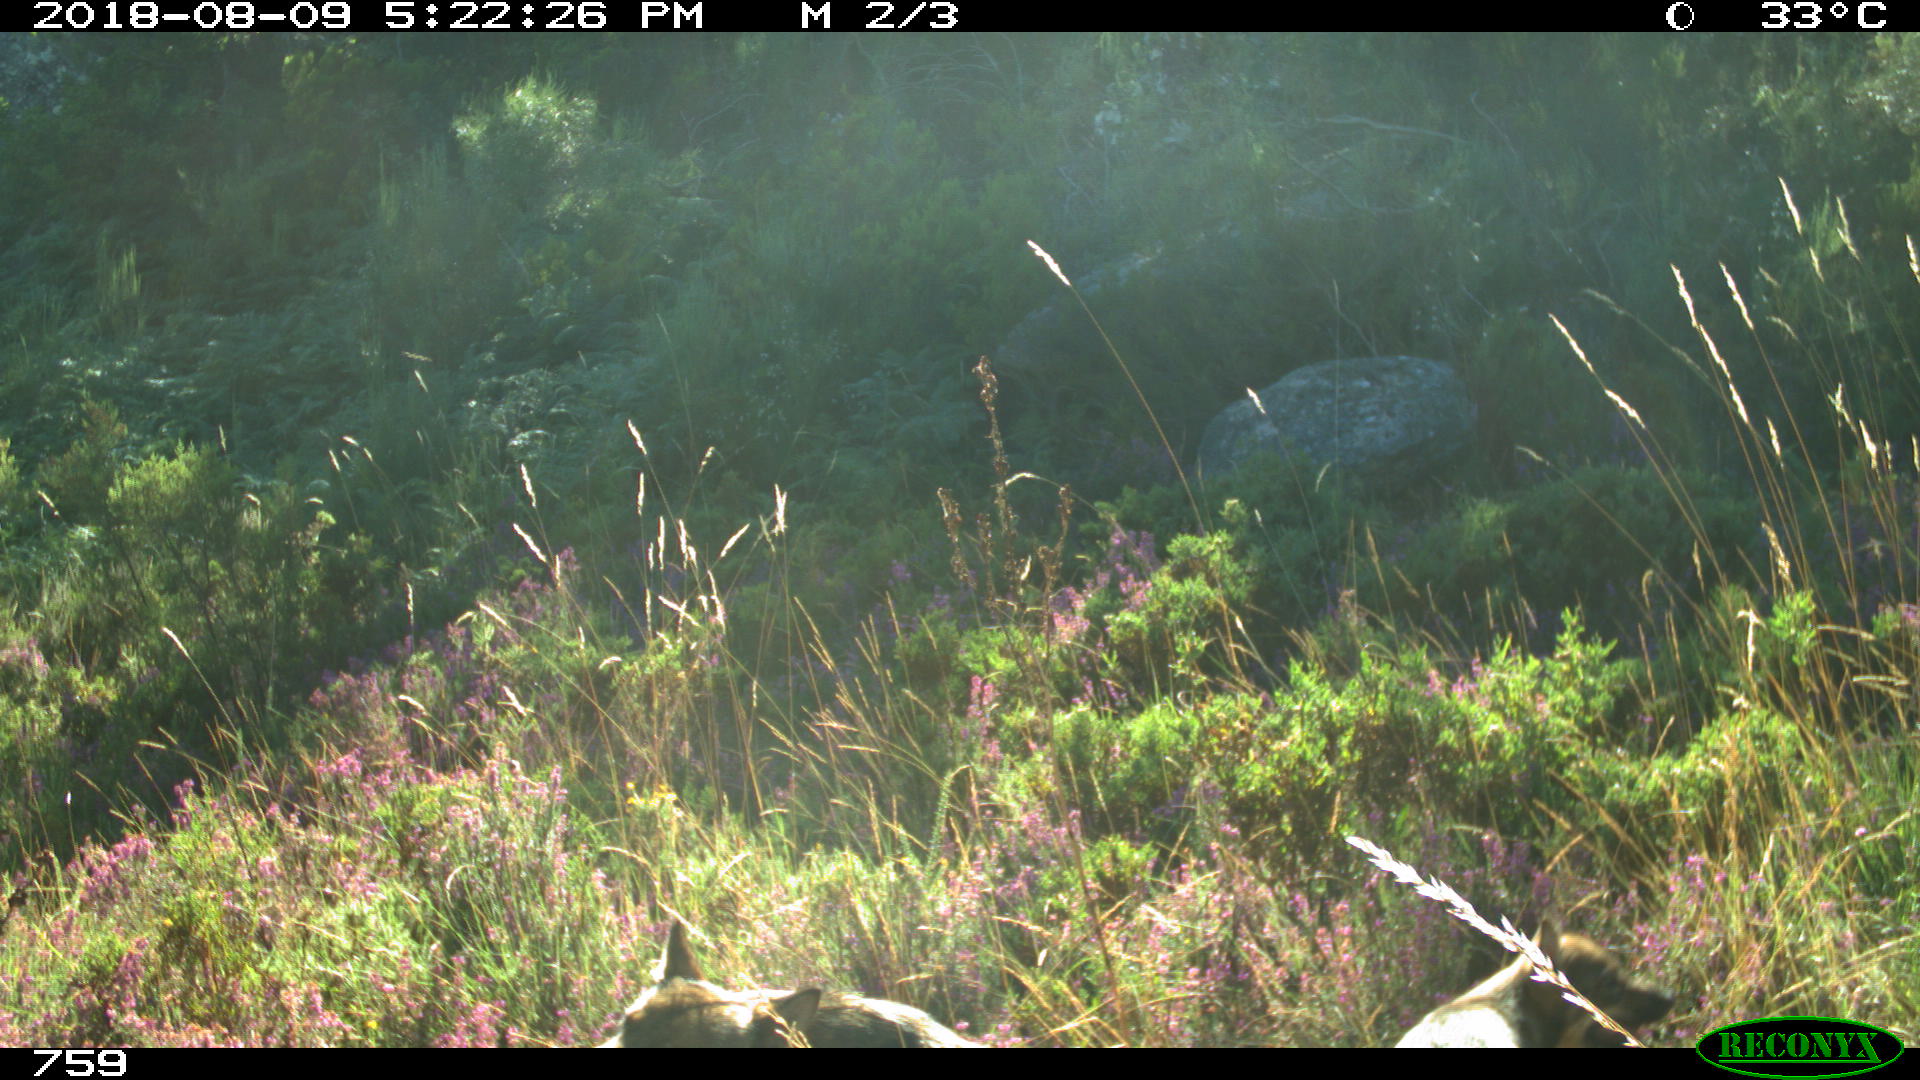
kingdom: Animalia
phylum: Chordata
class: Mammalia
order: Carnivora
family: Canidae
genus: Canis
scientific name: Canis lupus
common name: Gray wolf
